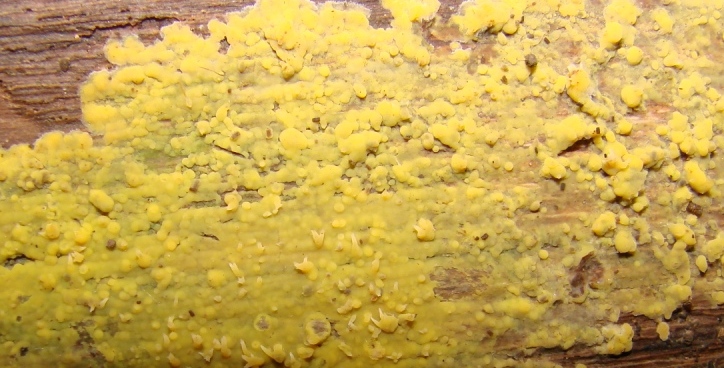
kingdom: Fungi
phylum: Basidiomycota
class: Agaricomycetes
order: Polyporales
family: Meruliaceae
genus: Mycoacia
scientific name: Mycoacia uda
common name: citrongul vokspig
